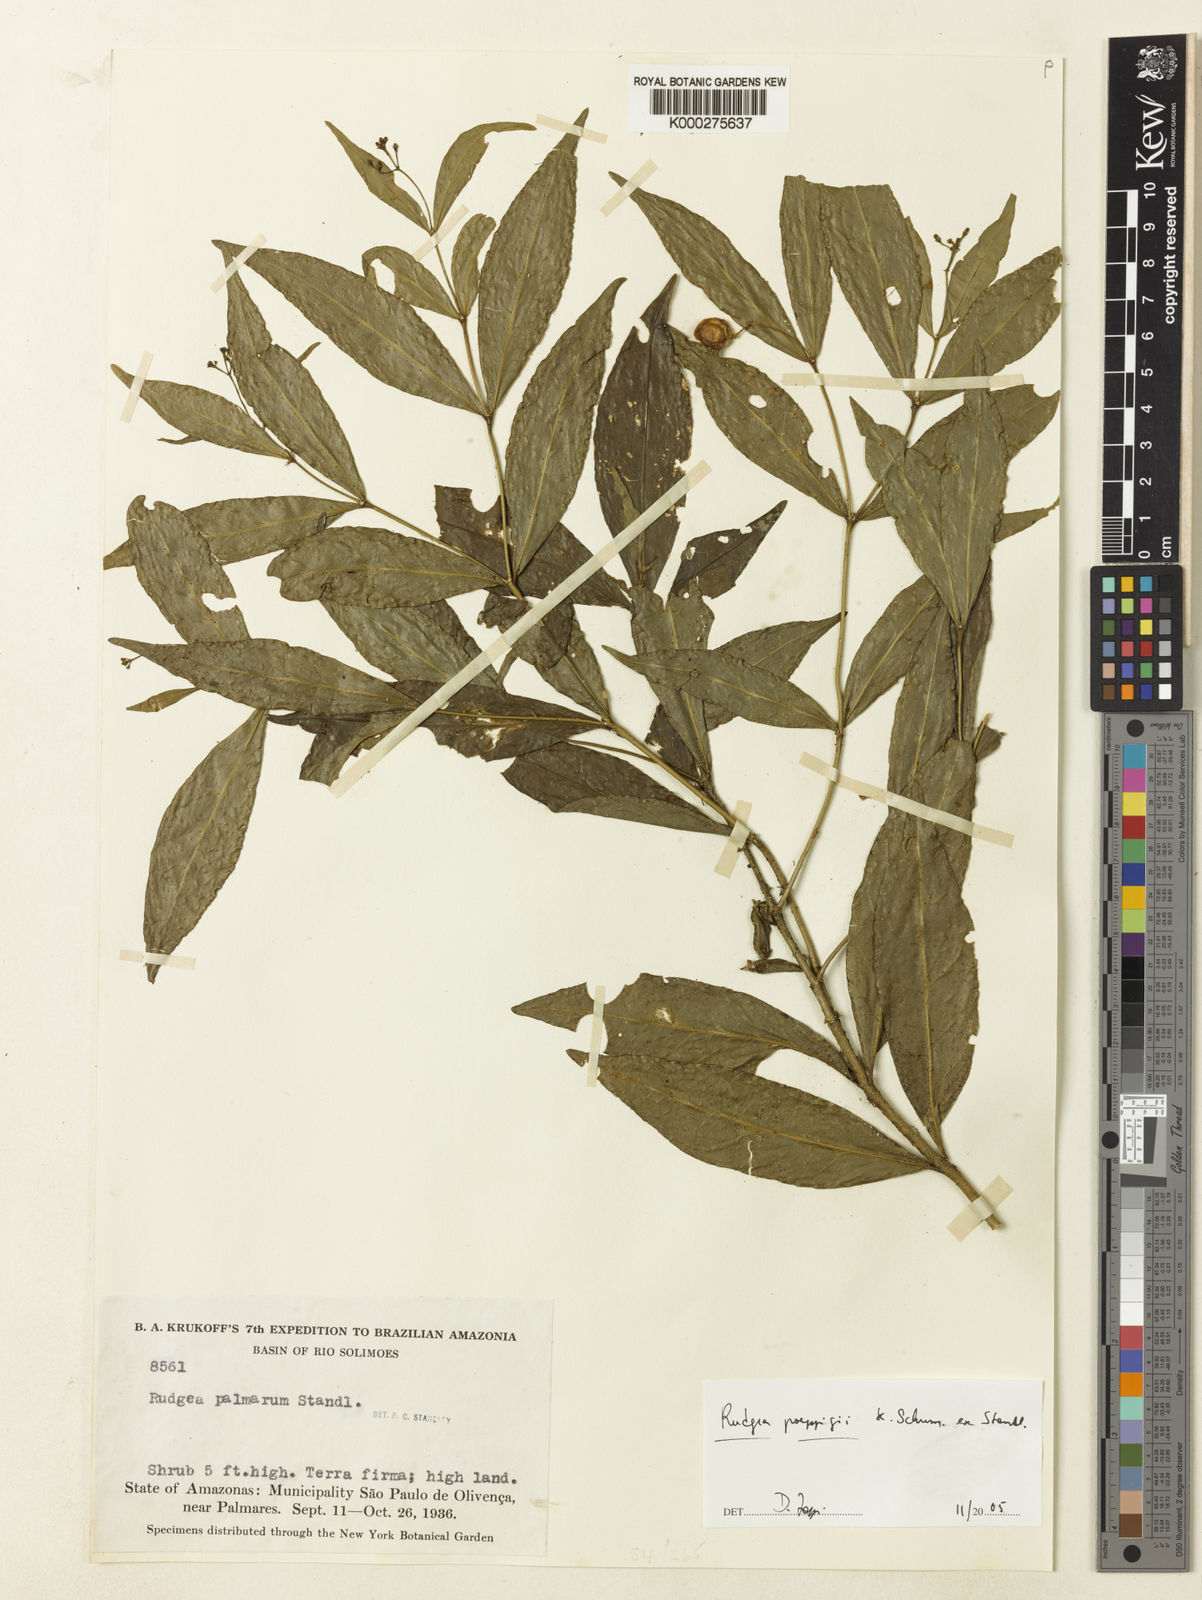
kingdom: Plantae
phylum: Tracheophyta
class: Magnoliopsida
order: Gentianales
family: Rubiaceae
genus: Rudgea
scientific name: Rudgea poeppigii
